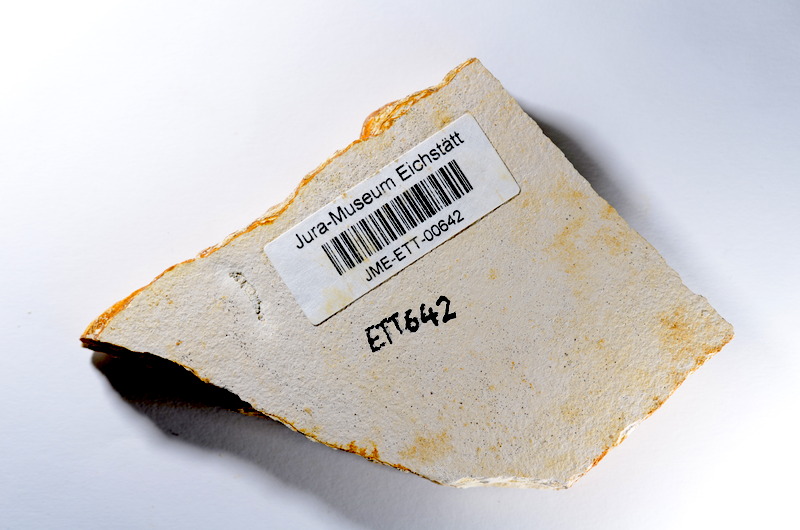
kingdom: Animalia
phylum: Chordata
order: Salmoniformes
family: Orthogonikleithridae
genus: Orthogonikleithrus
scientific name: Orthogonikleithrus hoelli
